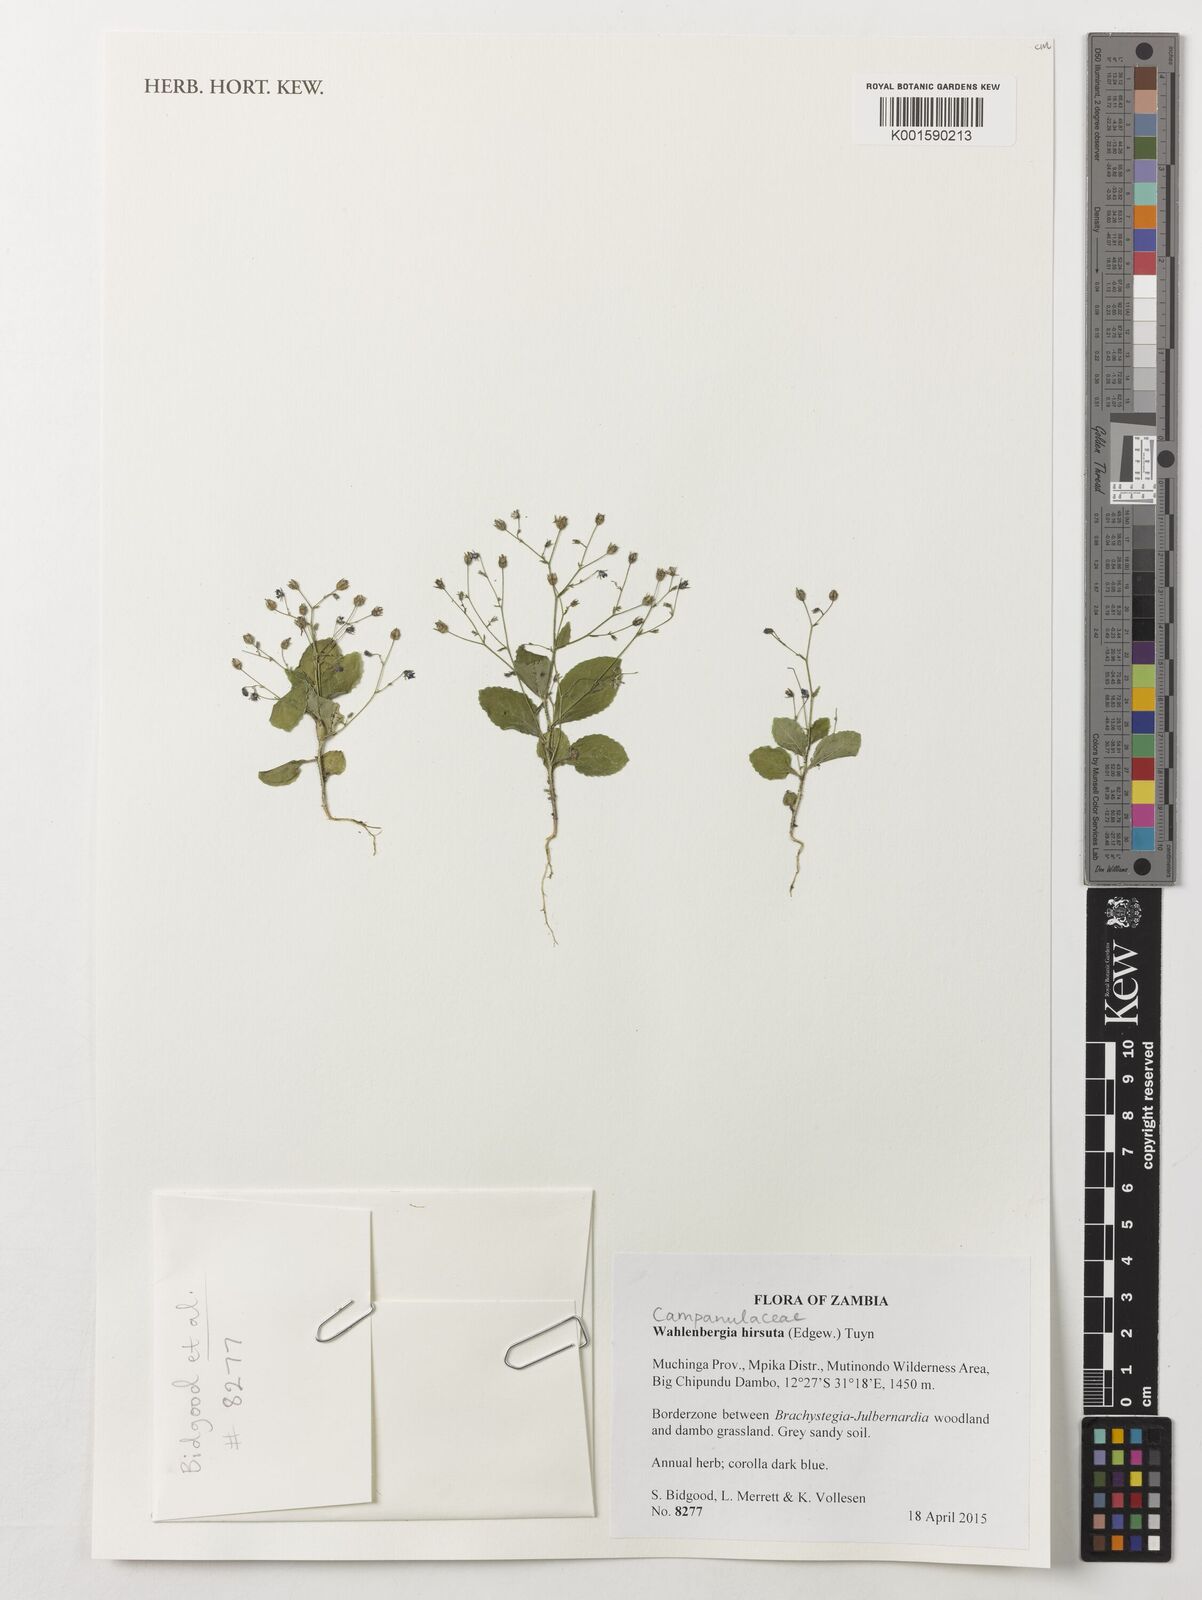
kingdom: Plantae
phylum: Tracheophyta
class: Magnoliopsida
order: Asterales
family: Campanulaceae
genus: Wahlenbergia
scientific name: Wahlenbergia hirsuta
